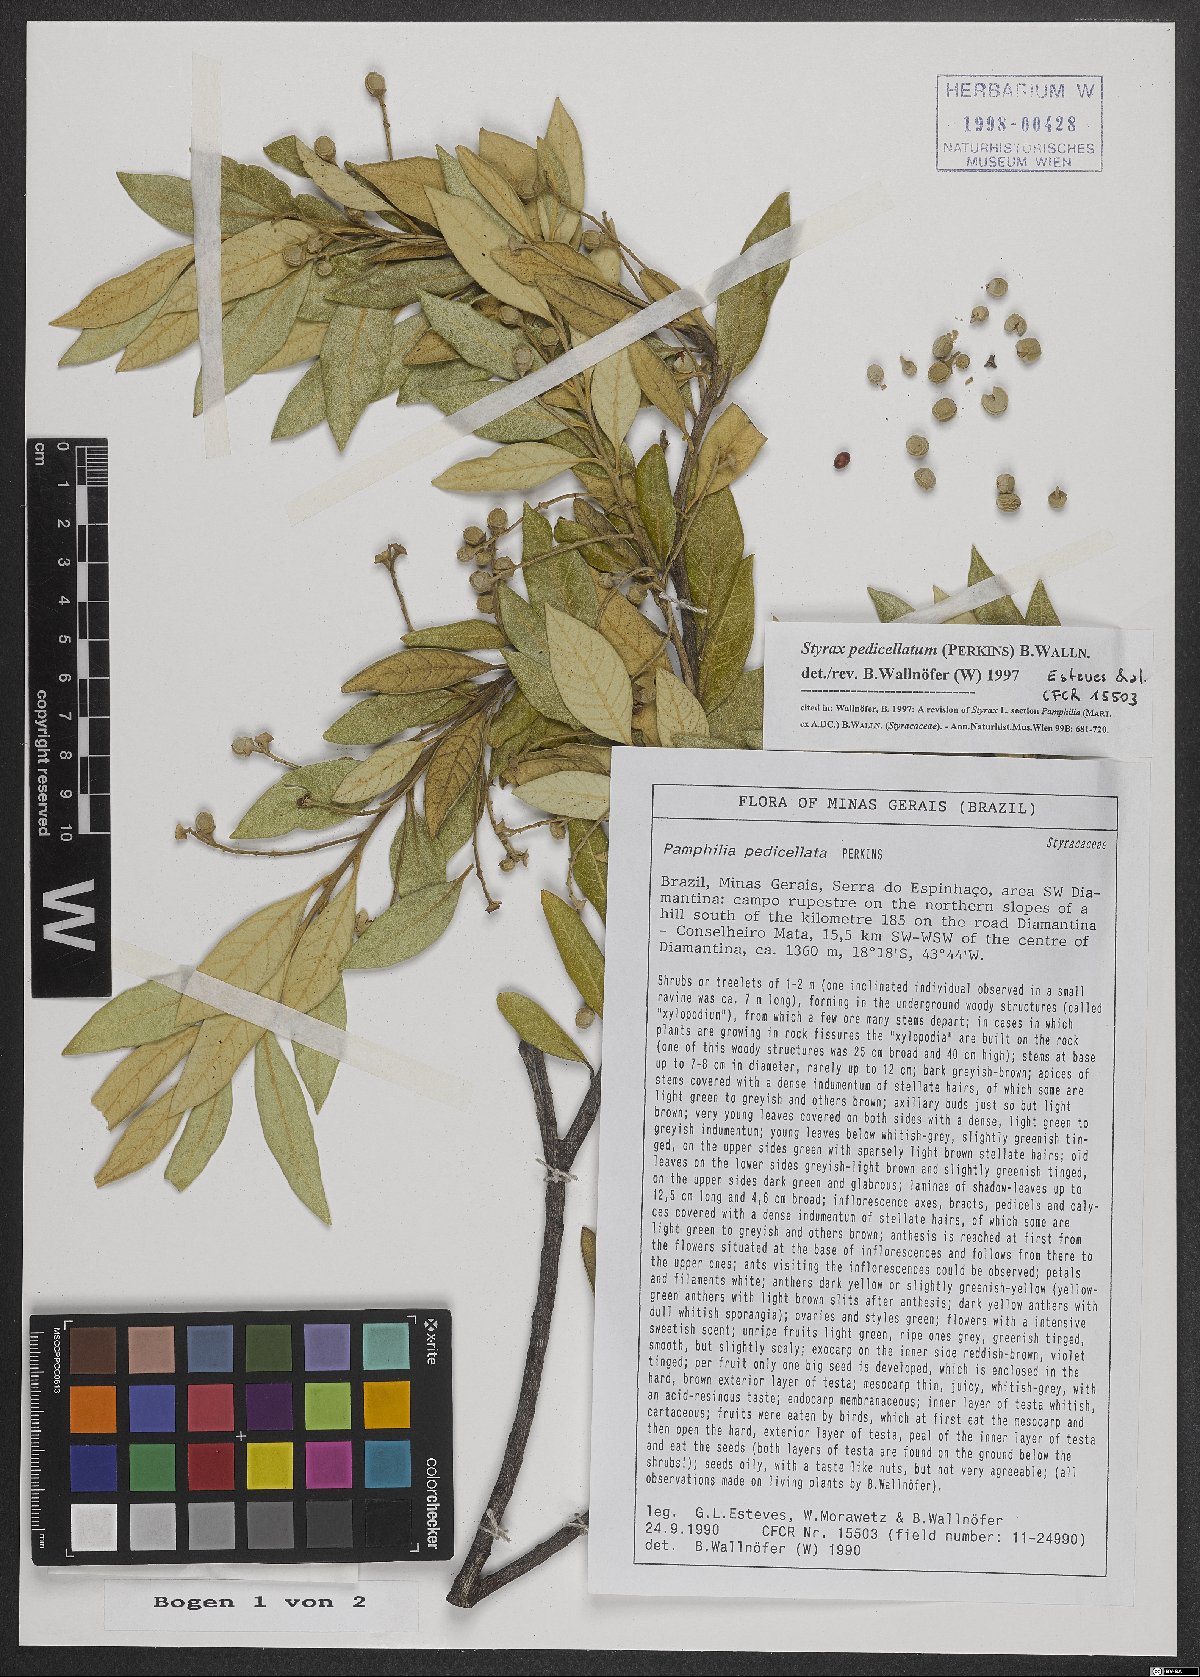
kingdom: Plantae
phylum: Tracheophyta
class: Magnoliopsida
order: Ericales
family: Styracaceae
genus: Styrax
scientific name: Styrax pedicellatus
